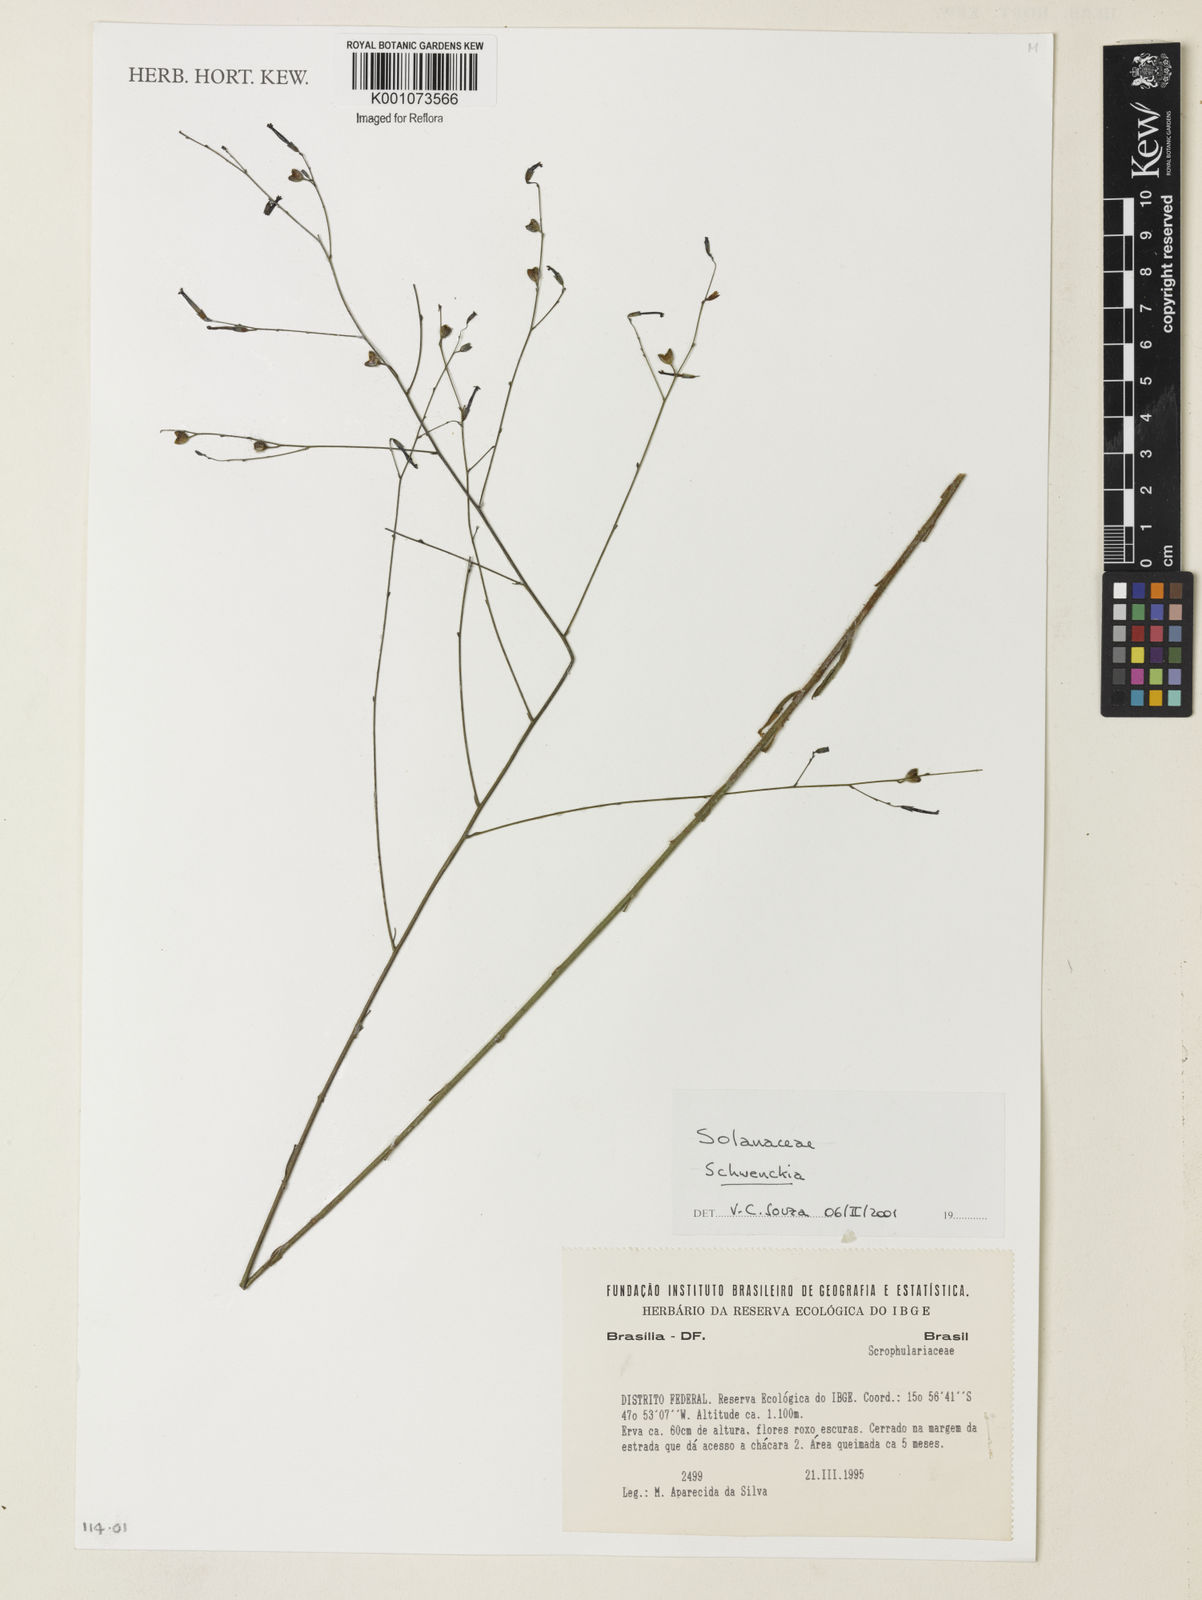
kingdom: Plantae
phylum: Tracheophyta
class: Magnoliopsida
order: Solanales
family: Solanaceae
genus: Schwenckia
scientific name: Schwenckia
